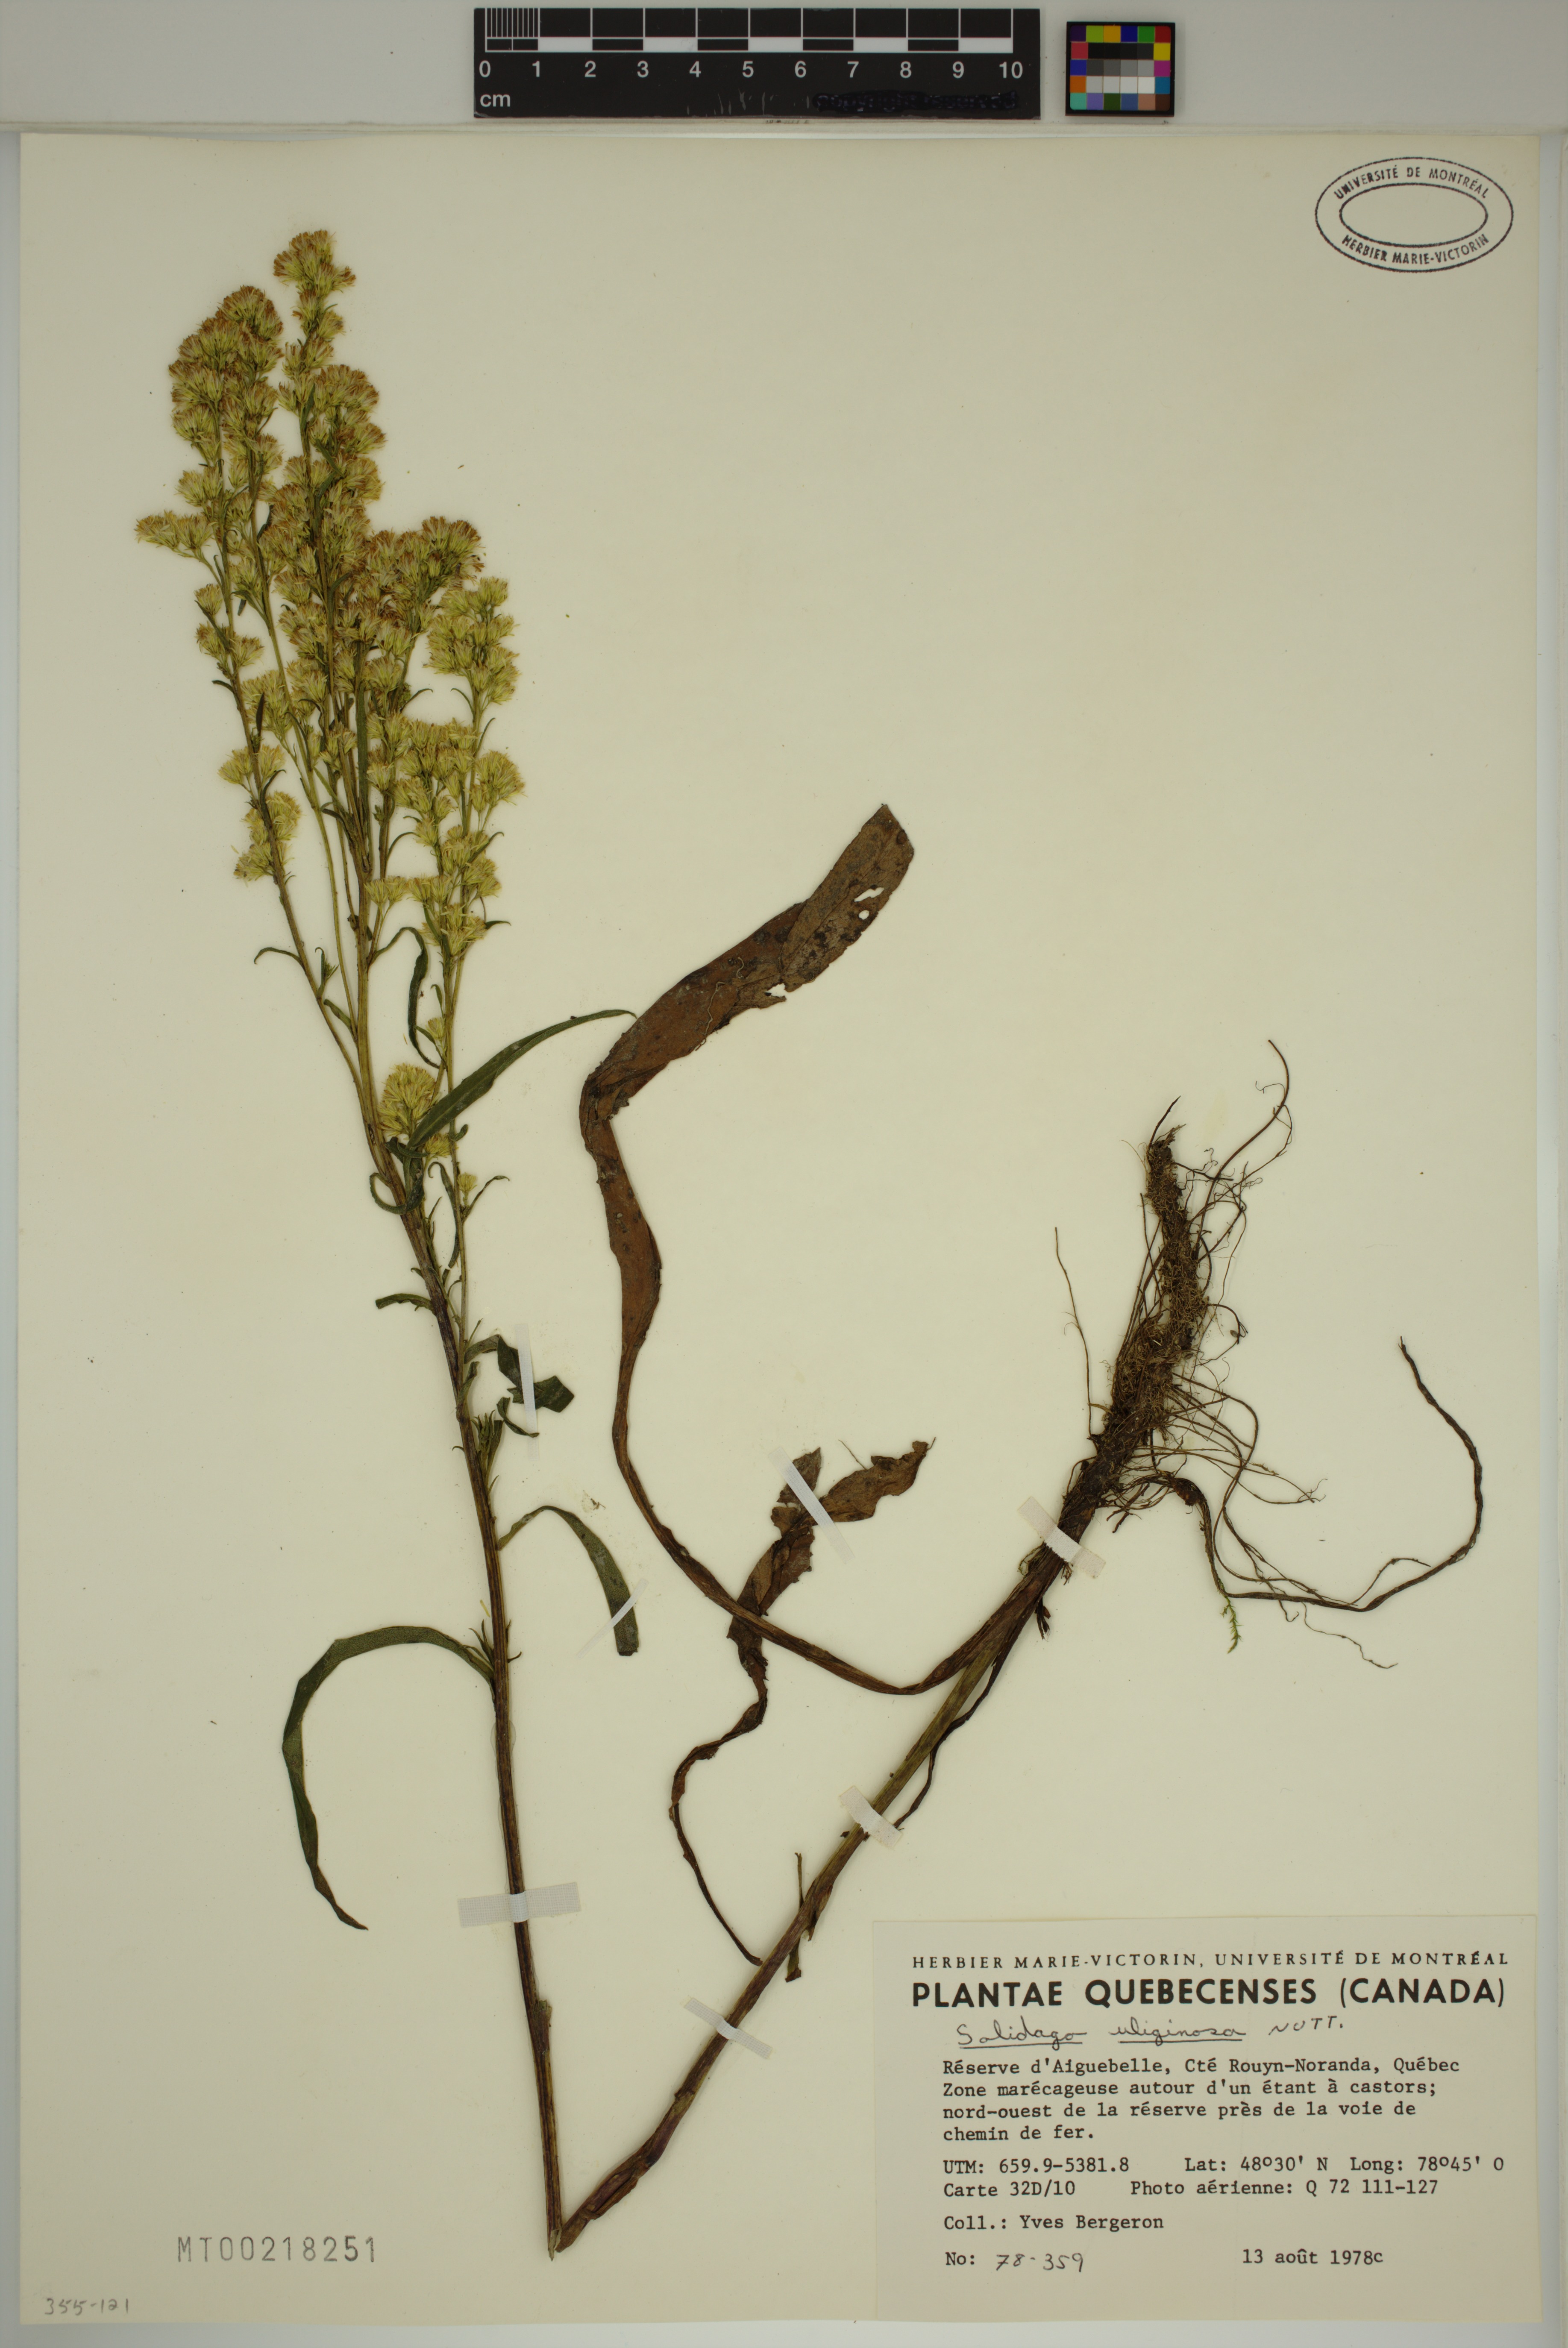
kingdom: Plantae
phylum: Tracheophyta
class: Magnoliopsida
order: Asterales
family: Asteraceae
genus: Solidago
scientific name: Solidago uliginosa
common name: Bog goldenrod
